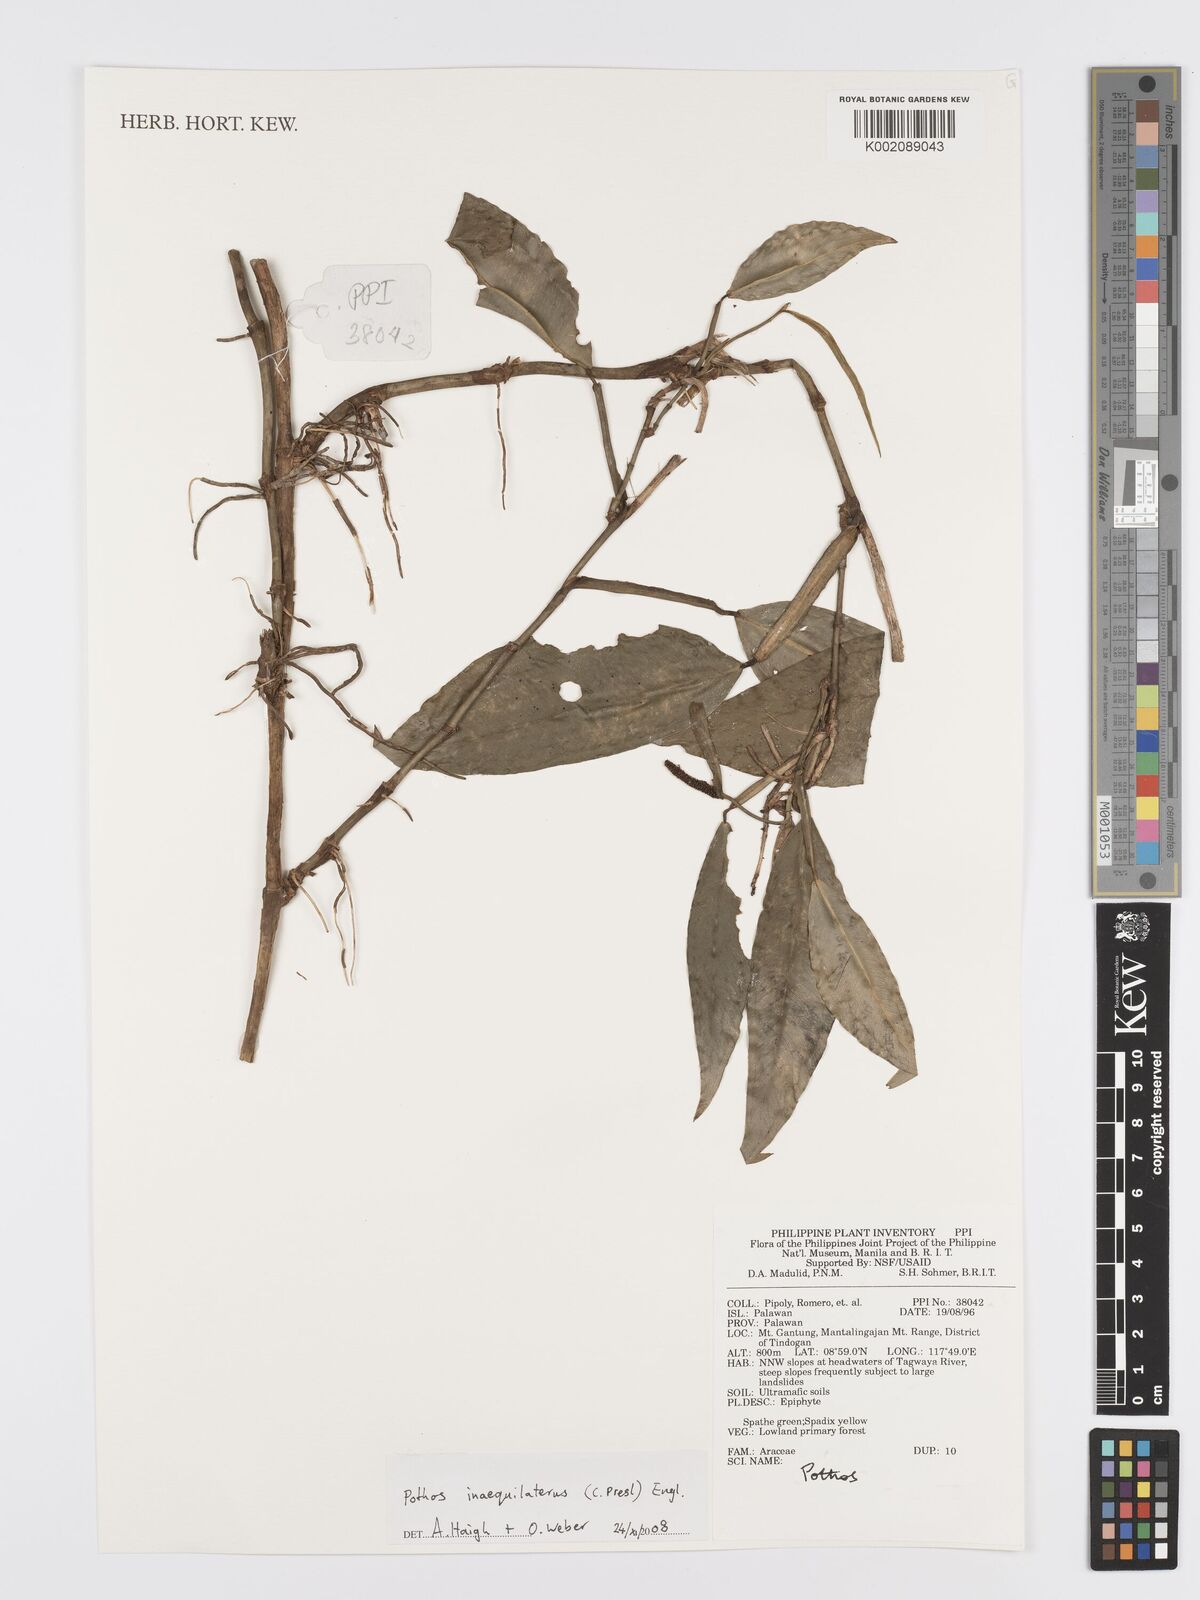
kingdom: Plantae
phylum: Tracheophyta
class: Liliopsida
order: Alismatales
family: Araceae
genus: Pothos
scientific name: Pothos inaequilaterus
